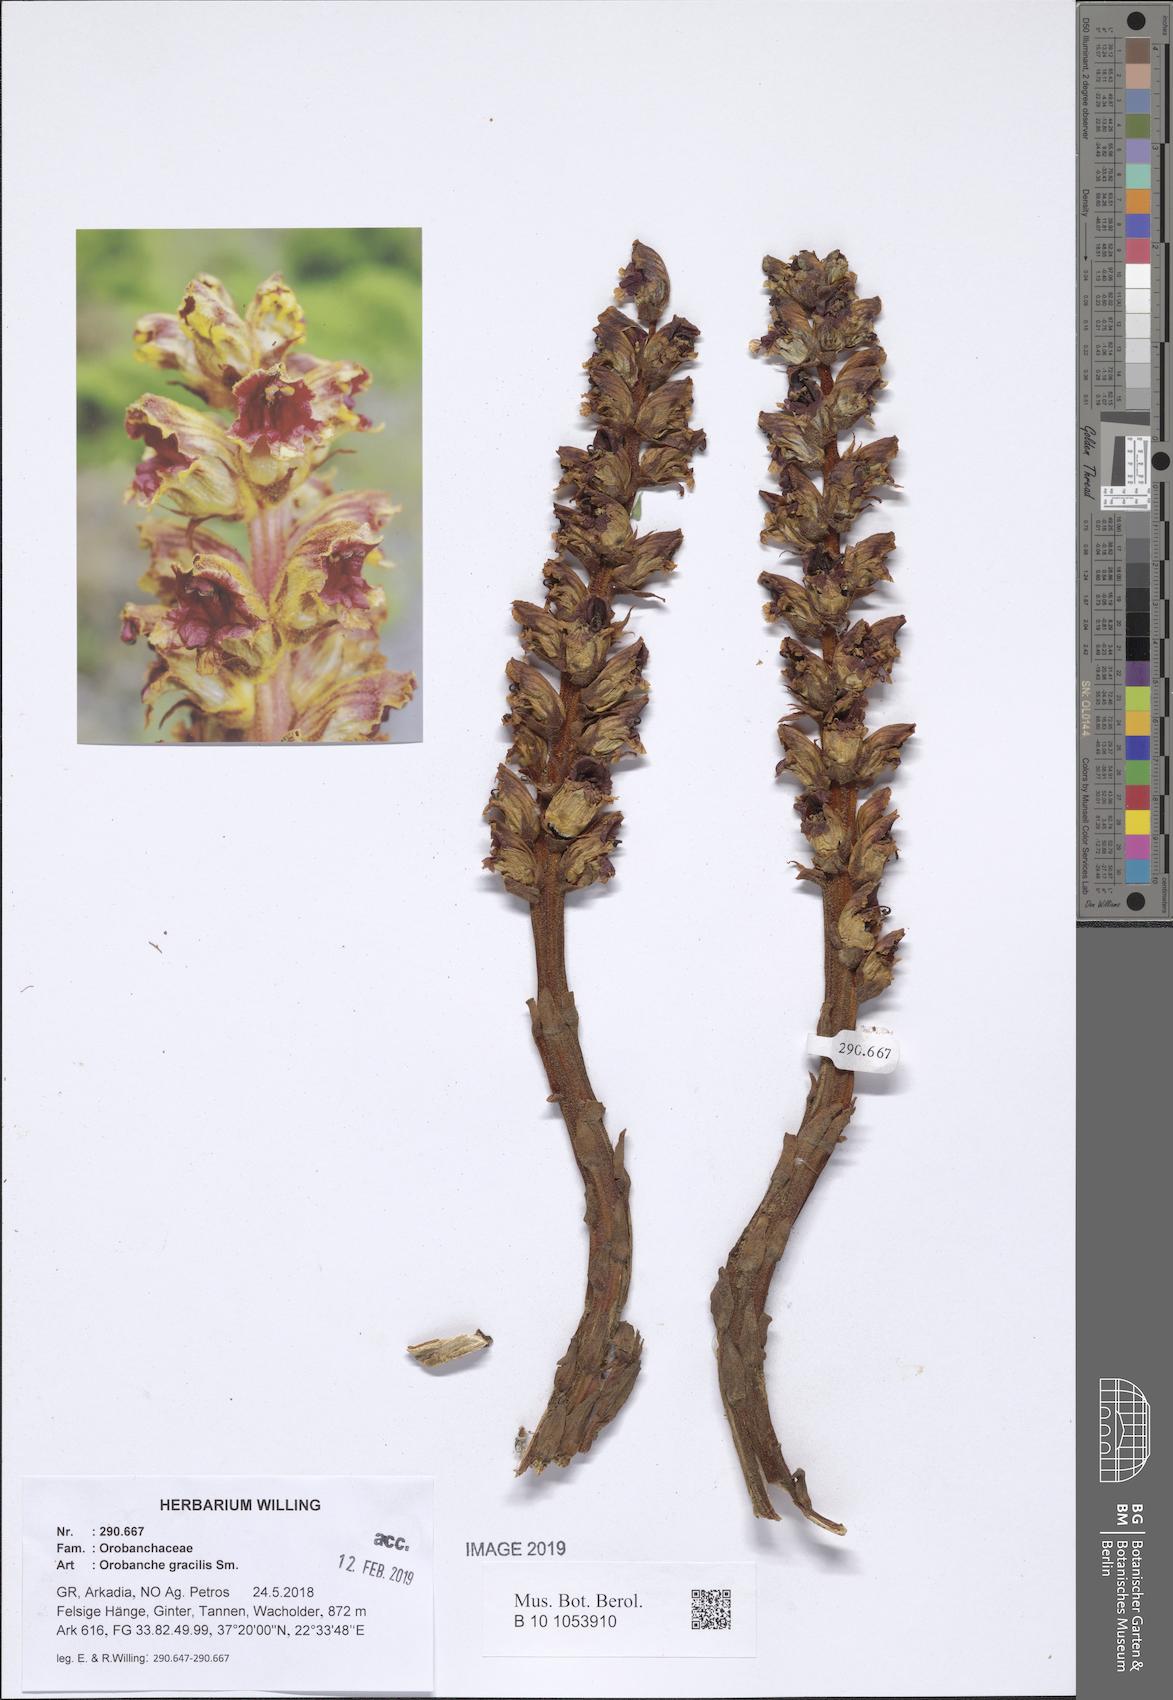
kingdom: Plantae
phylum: Tracheophyta
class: Magnoliopsida
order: Lamiales
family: Orobanchaceae
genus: Orobanche
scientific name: Orobanche gracilis
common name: Slender broomrape
